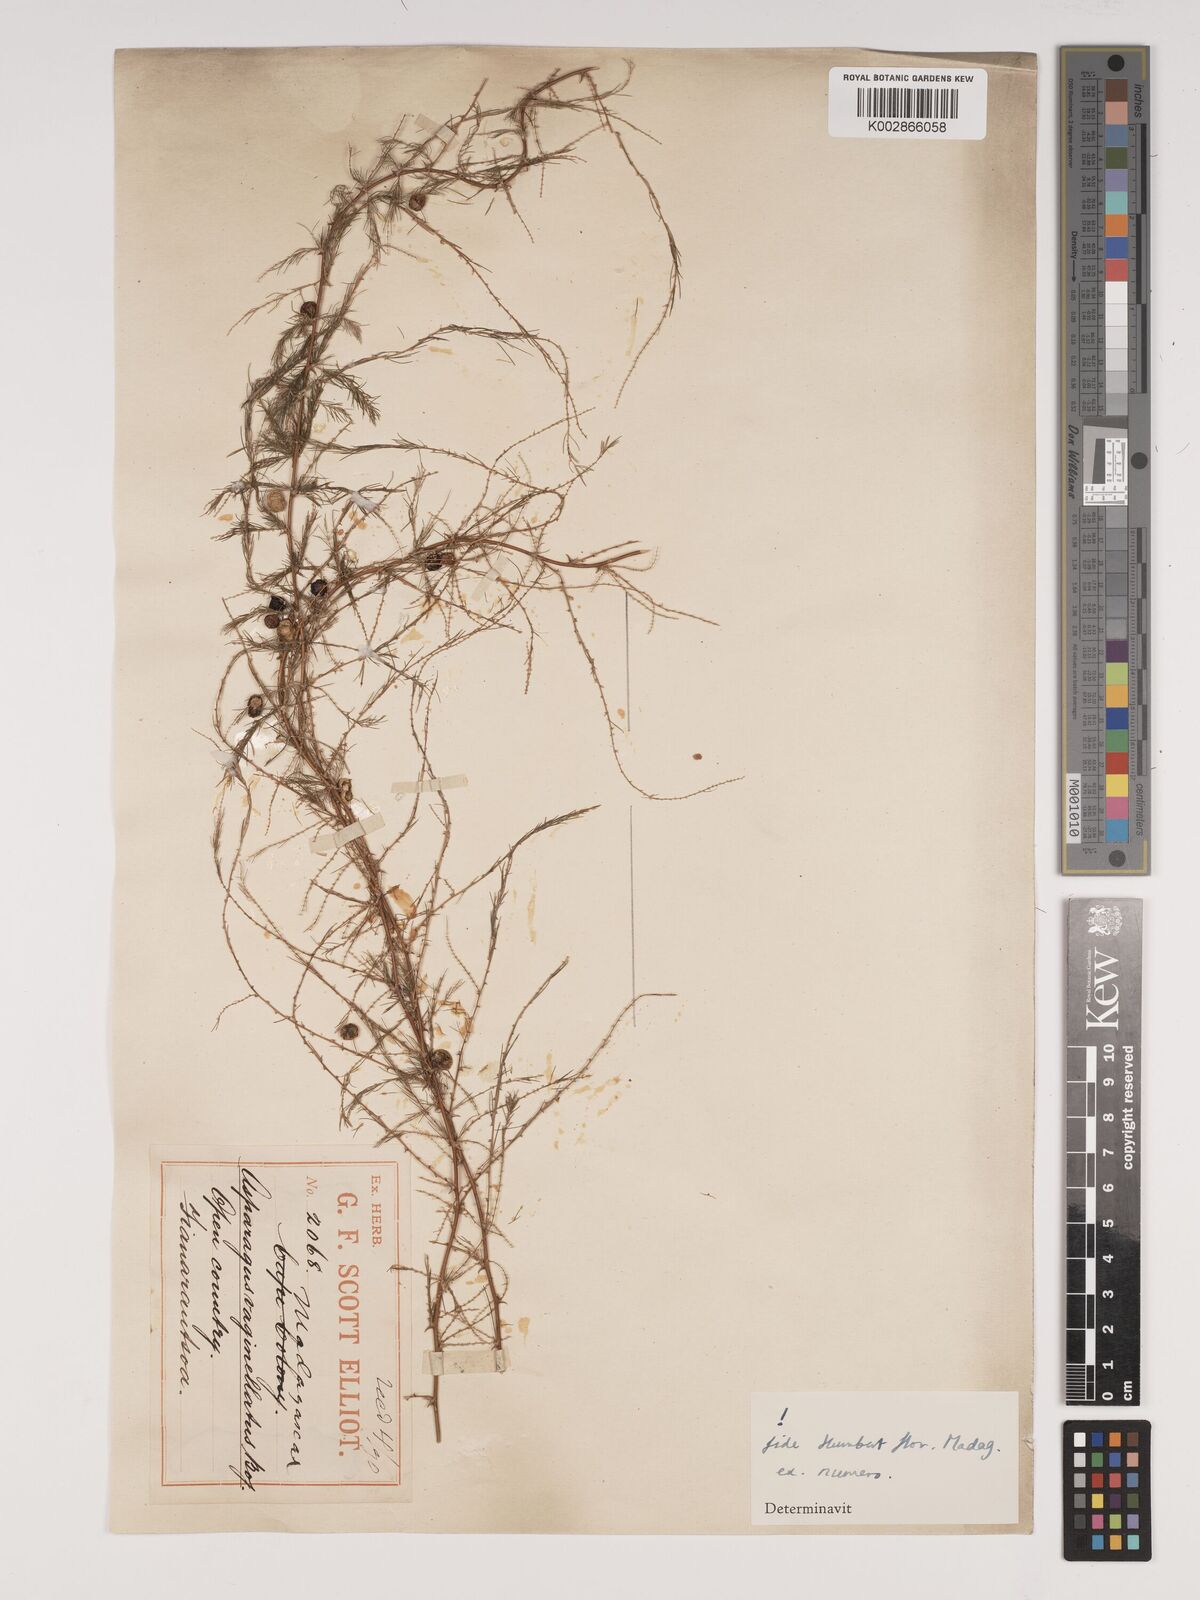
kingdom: Plantae
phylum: Tracheophyta
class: Liliopsida
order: Asparagales
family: Asparagaceae
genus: Asparagus
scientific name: Asparagus vaginellatus
